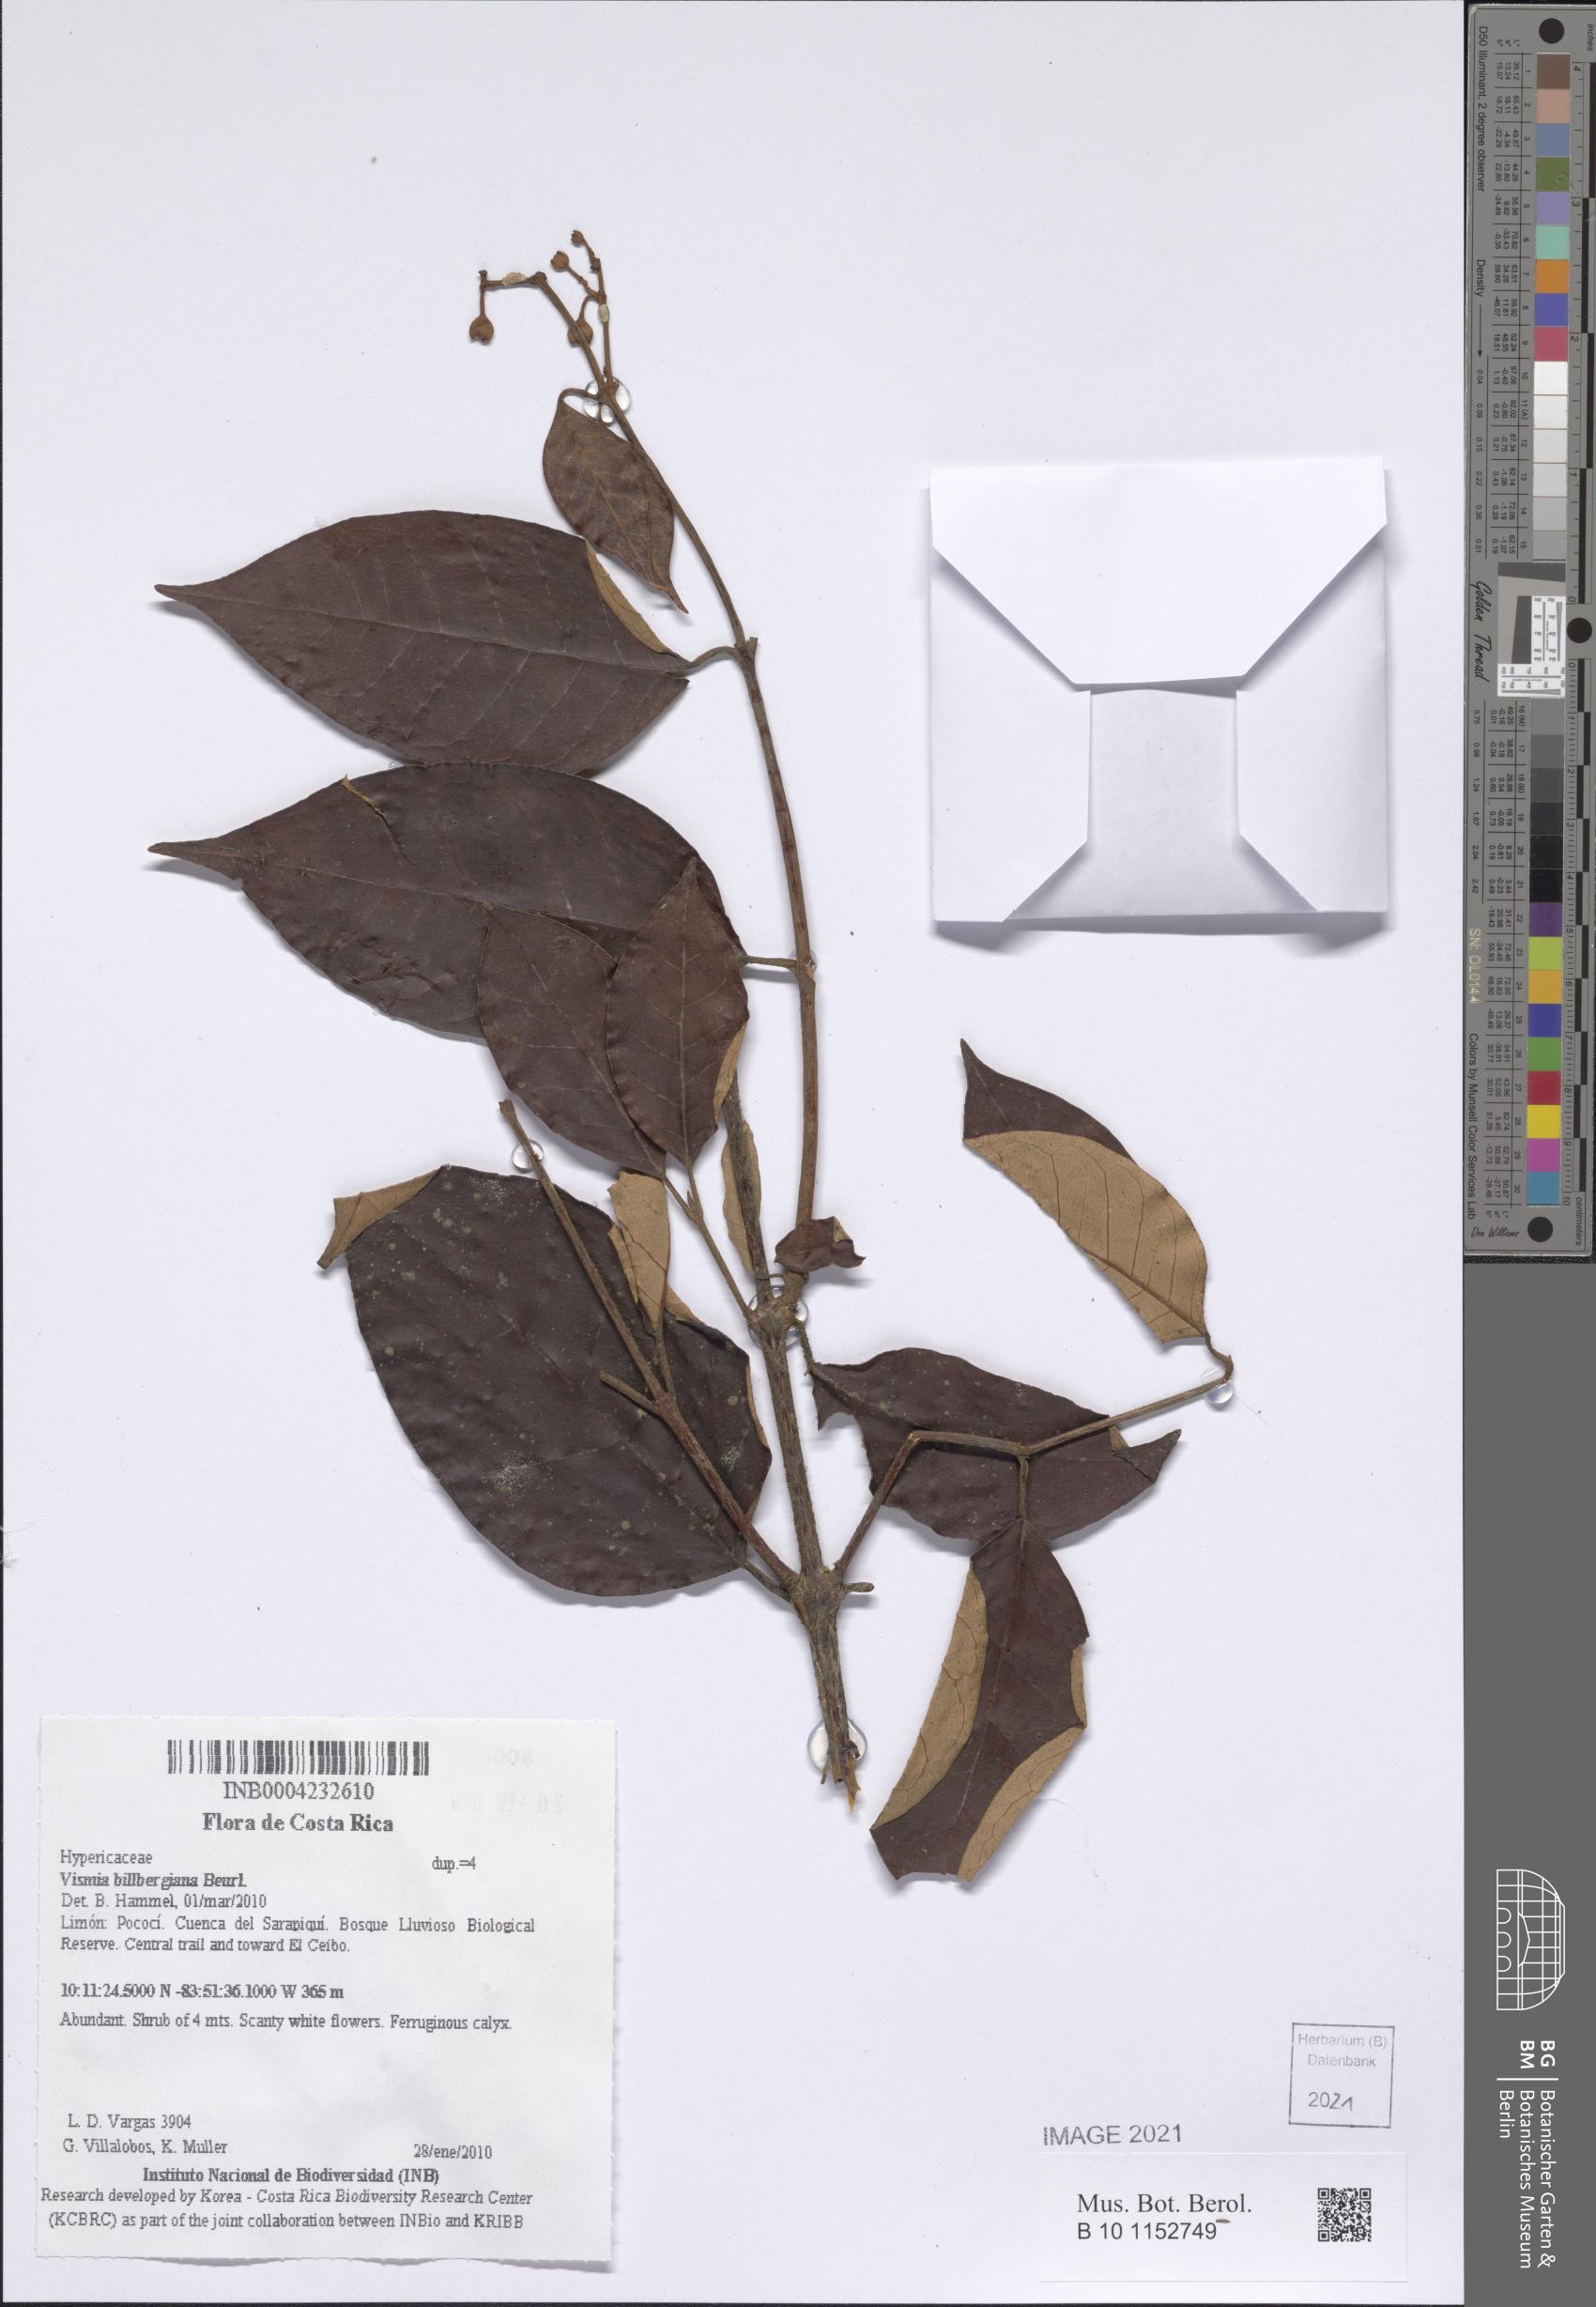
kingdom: Plantae
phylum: Tracheophyta
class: Magnoliopsida
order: Malpighiales
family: Hypericaceae
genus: Vismia
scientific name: Vismia billbergiana
